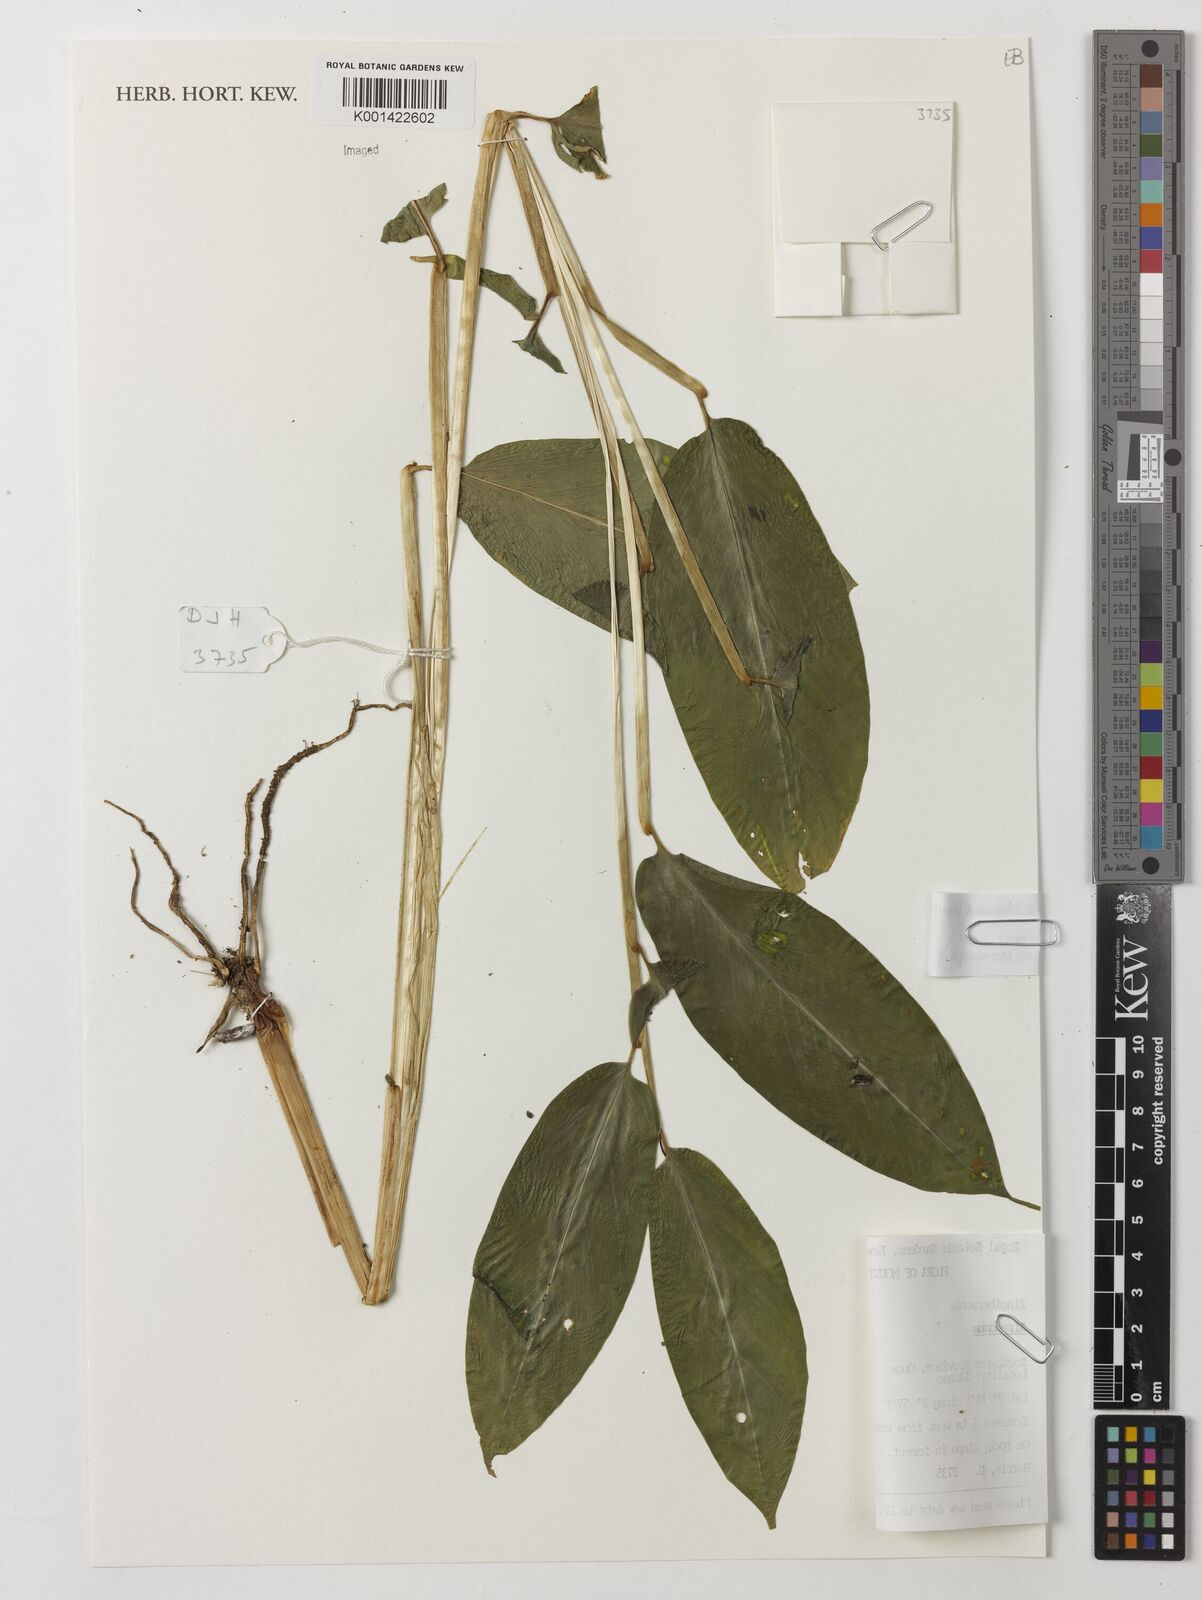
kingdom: Plantae
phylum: Tracheophyta
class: Liliopsida
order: Zingiberales
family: Zingiberaceae
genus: Aframomum
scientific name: Aframomum fragrans
